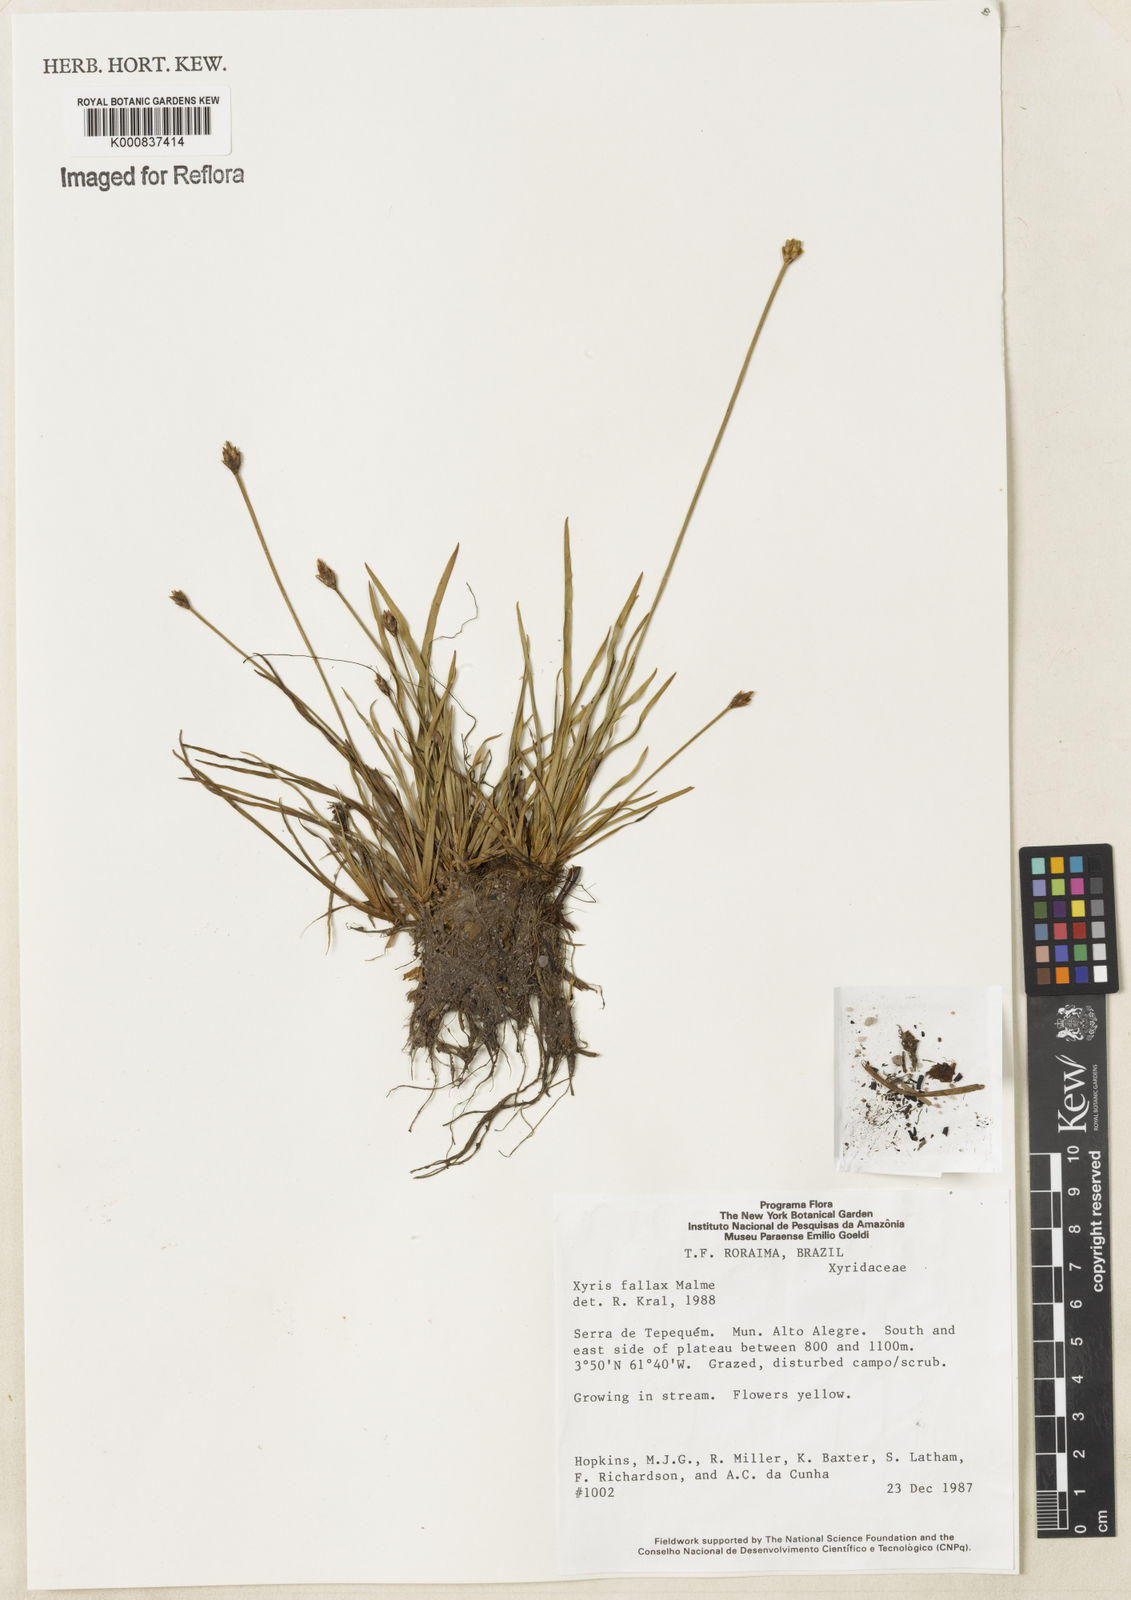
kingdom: Plantae
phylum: Tracheophyta
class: Liliopsida
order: Poales
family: Xyridaceae
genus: Xyris
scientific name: Xyris fallax
